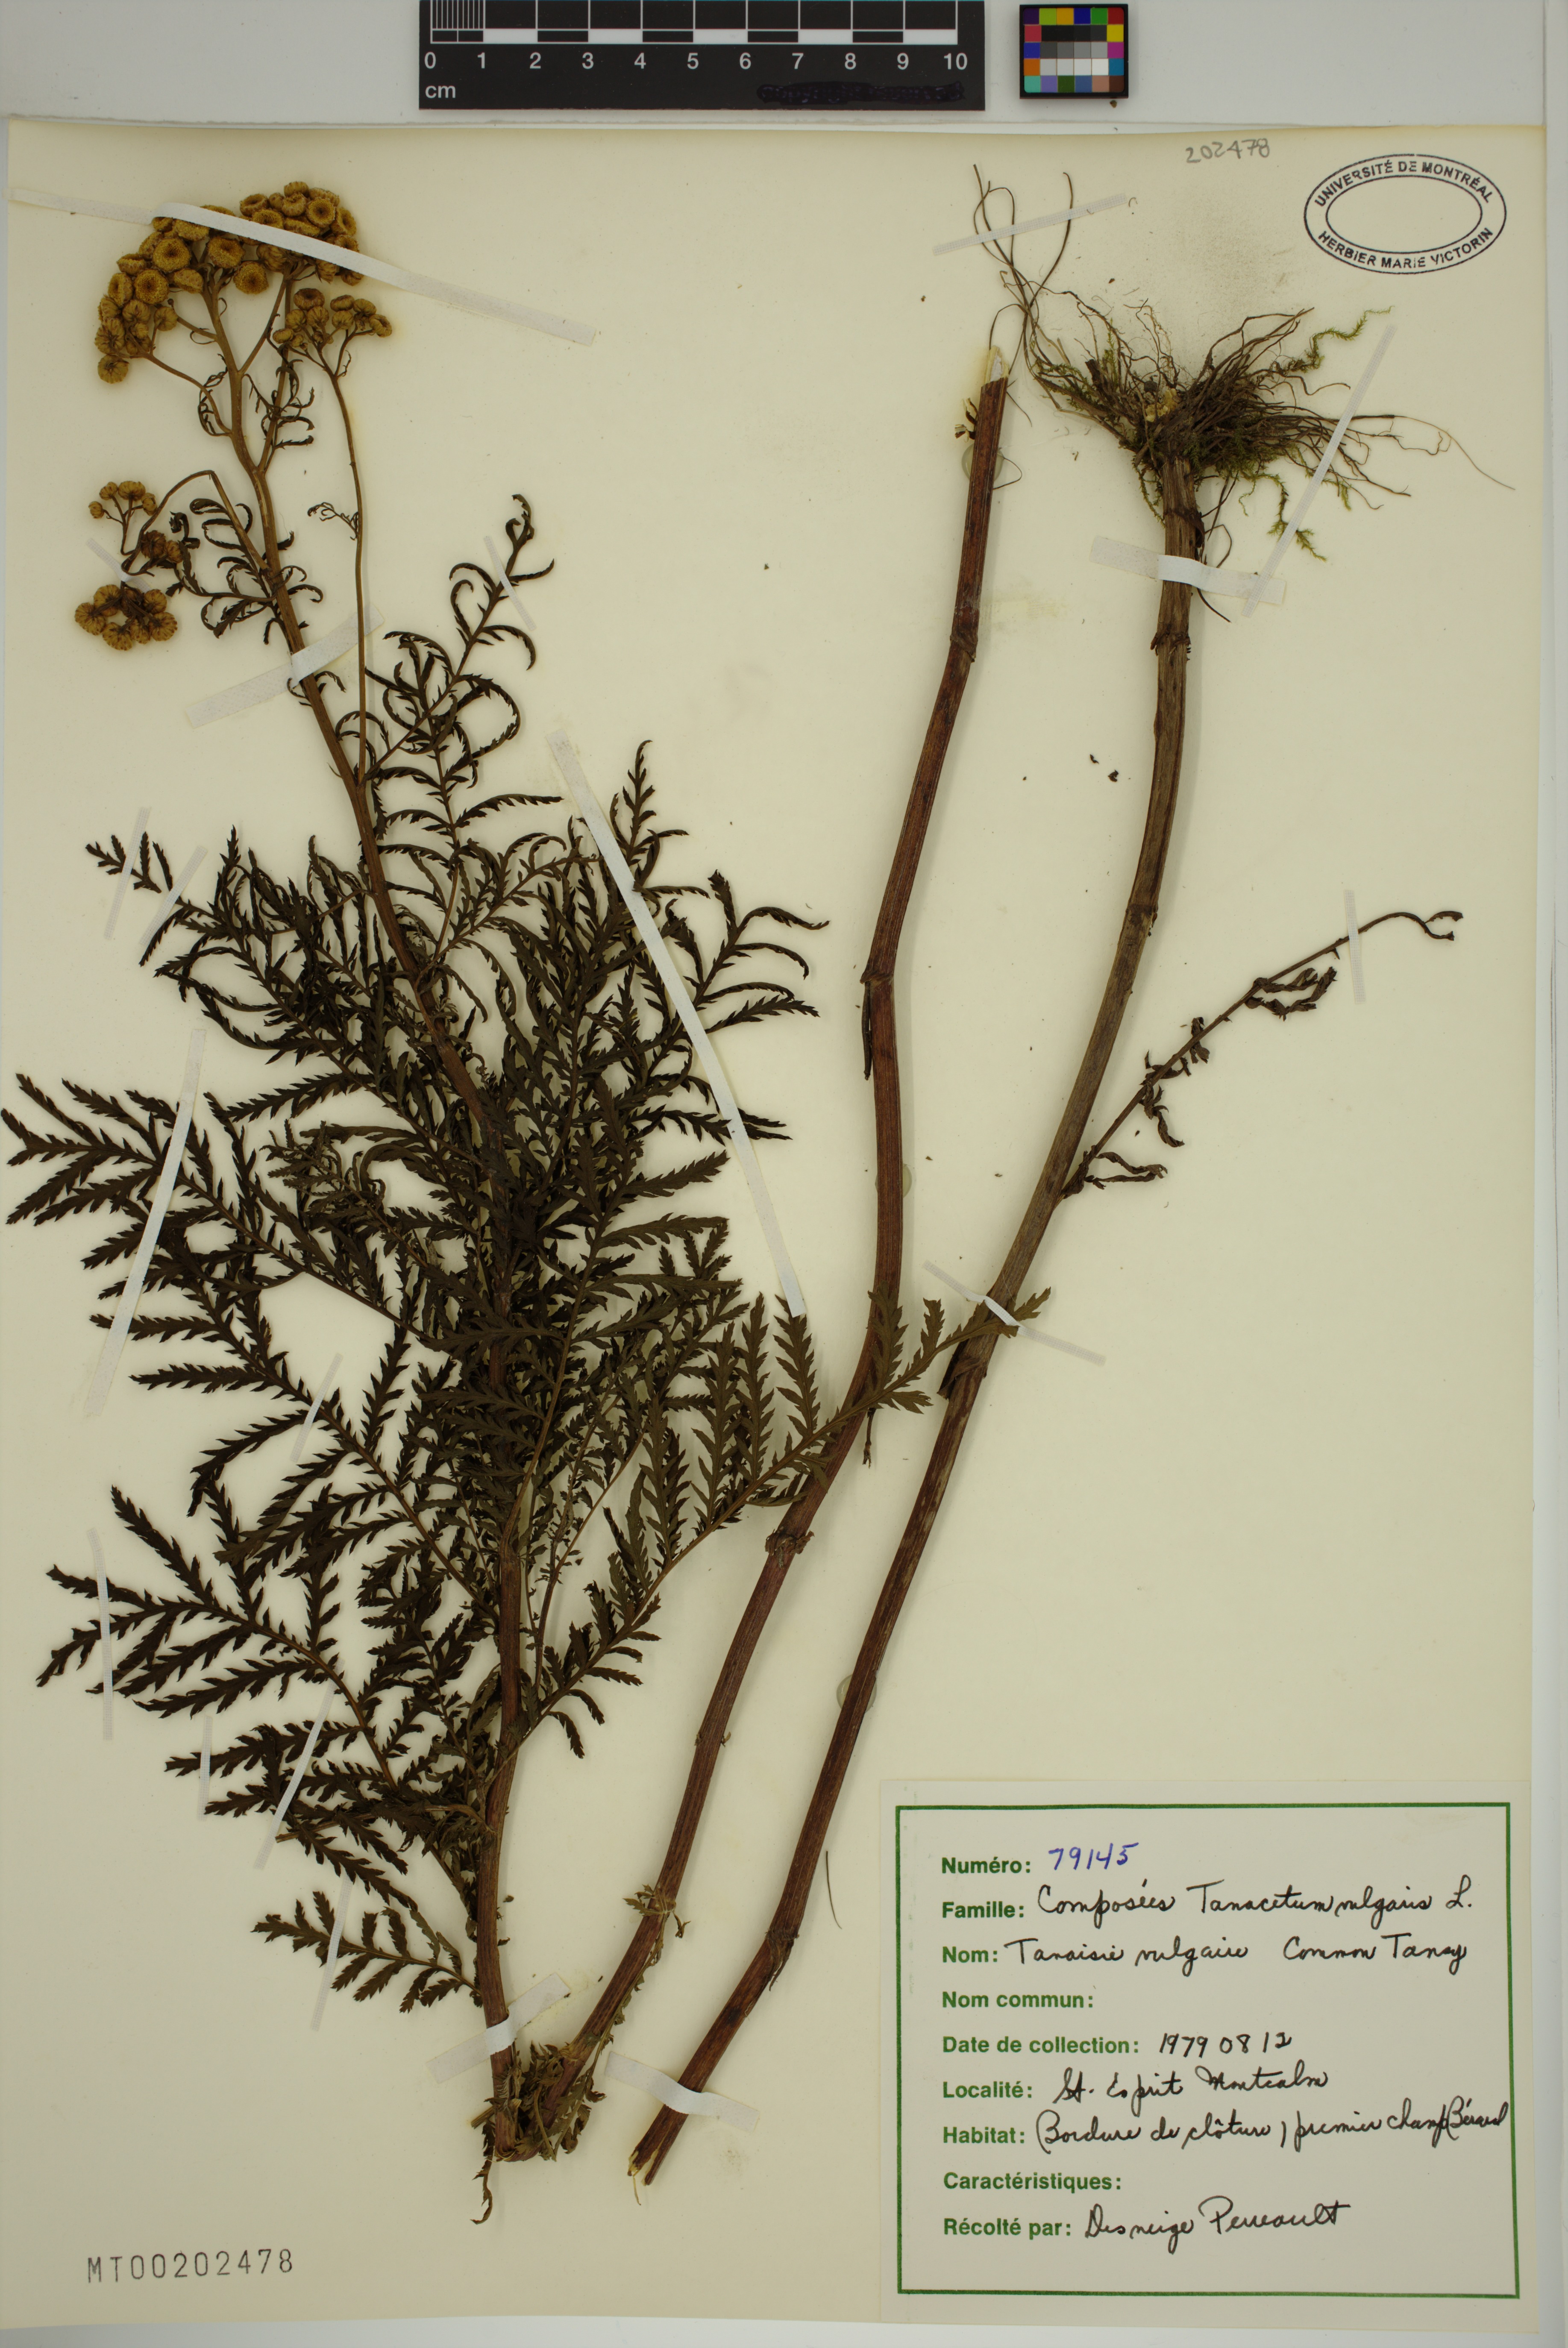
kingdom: Plantae
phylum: Tracheophyta
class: Magnoliopsida
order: Asterales
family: Asteraceae
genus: Tanacetum
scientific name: Tanacetum vulgare
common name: Common tansy
